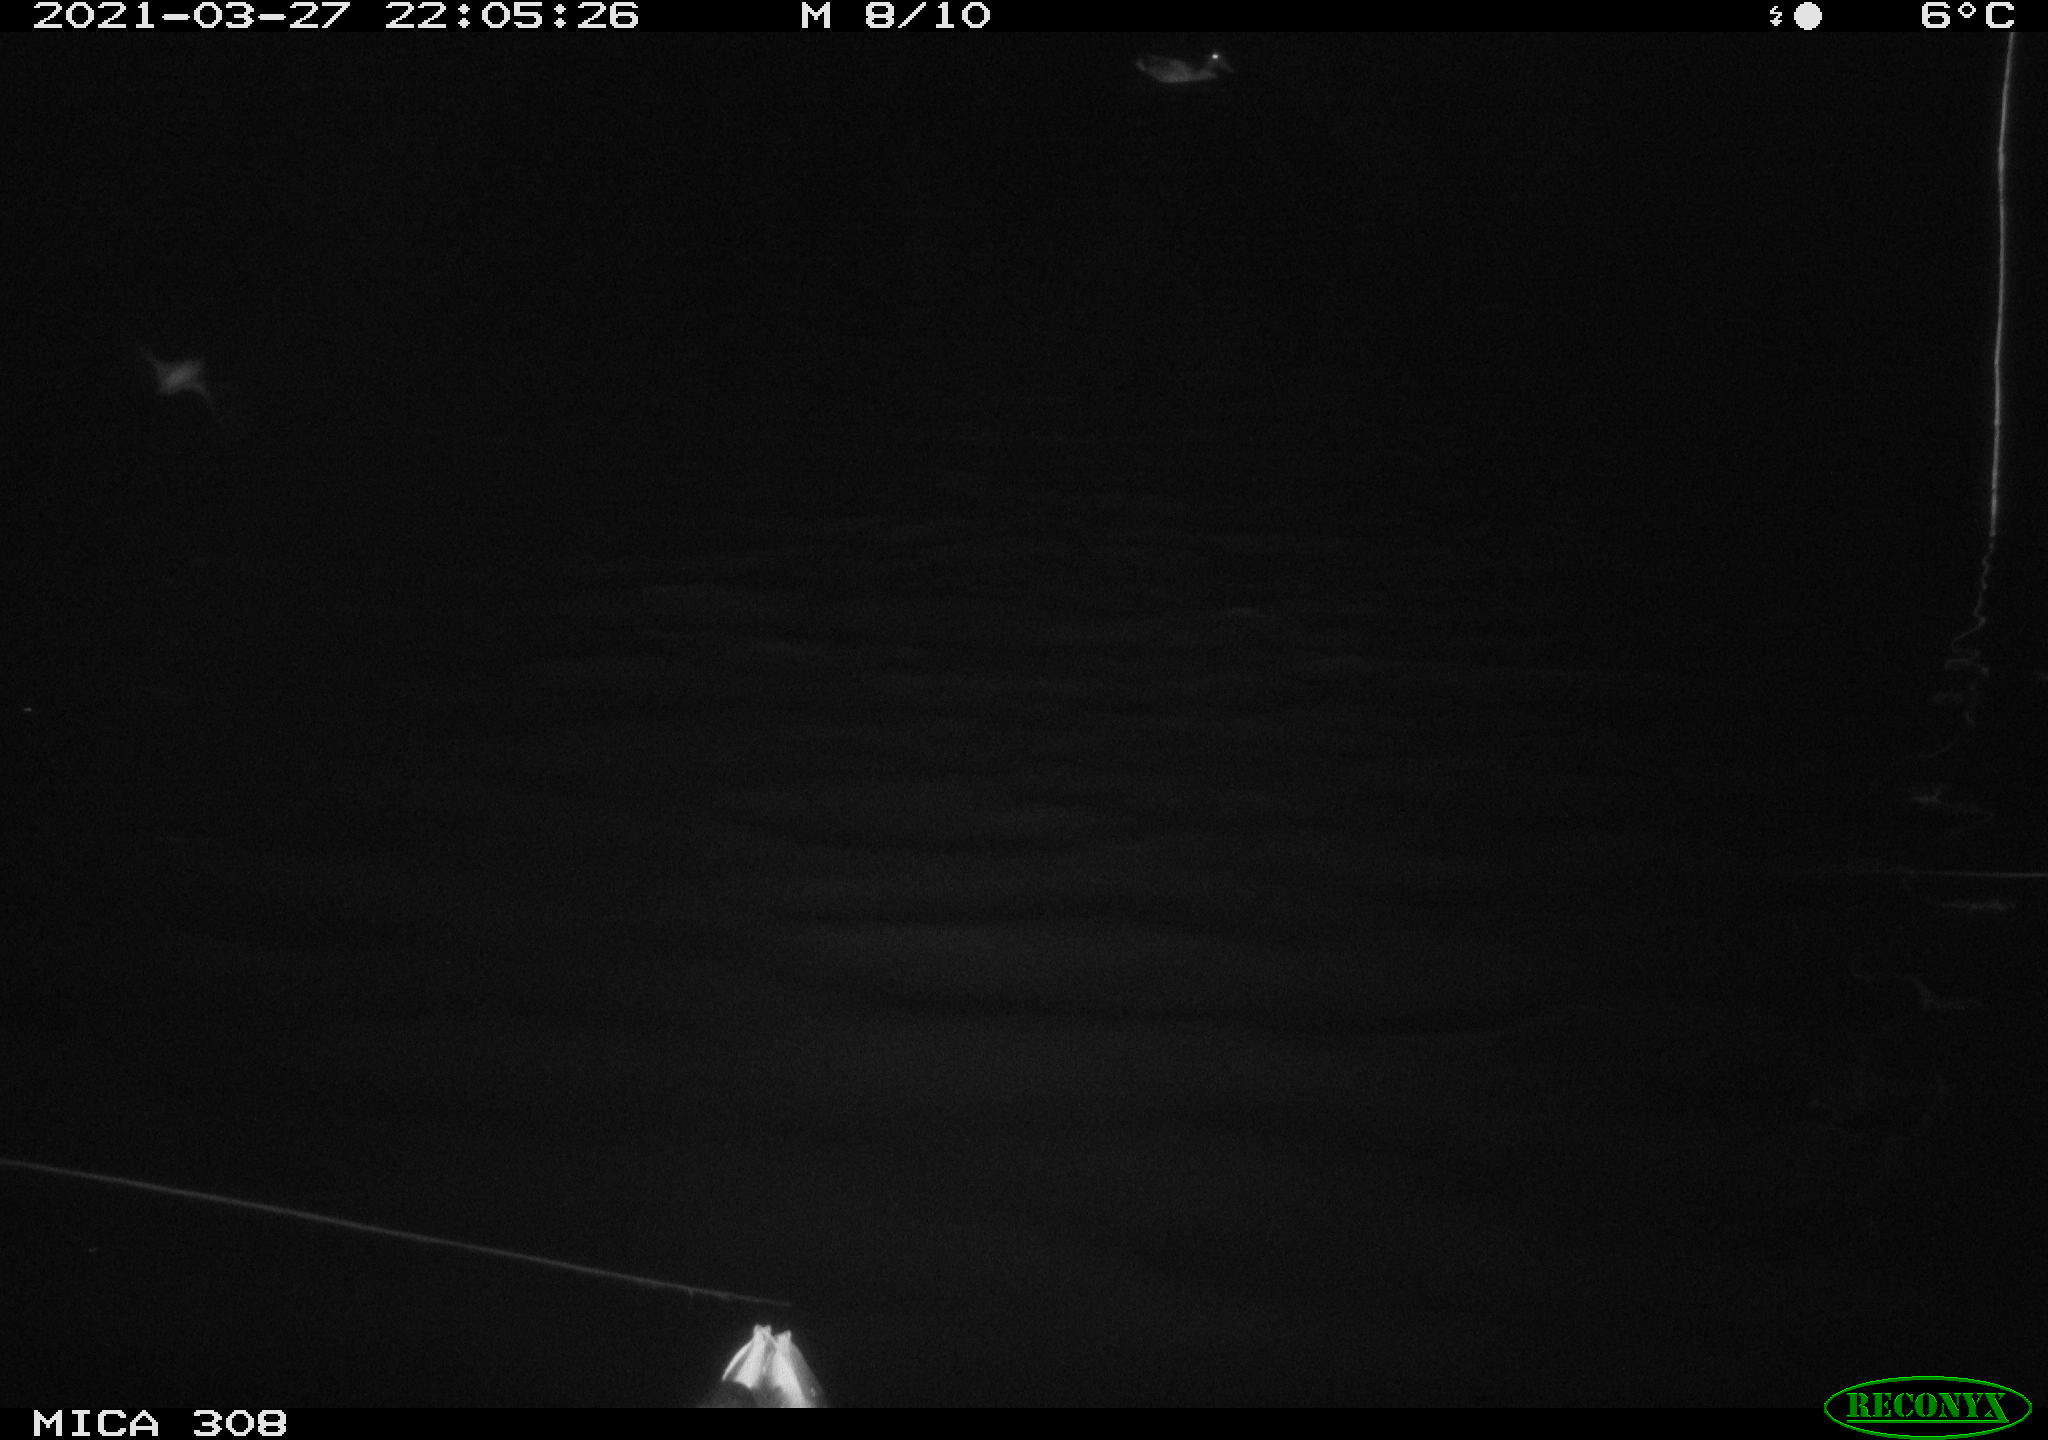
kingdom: Animalia
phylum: Chordata
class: Aves
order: Anseriformes
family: Anatidae
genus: Anas
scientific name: Anas platyrhynchos
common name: Mallard
